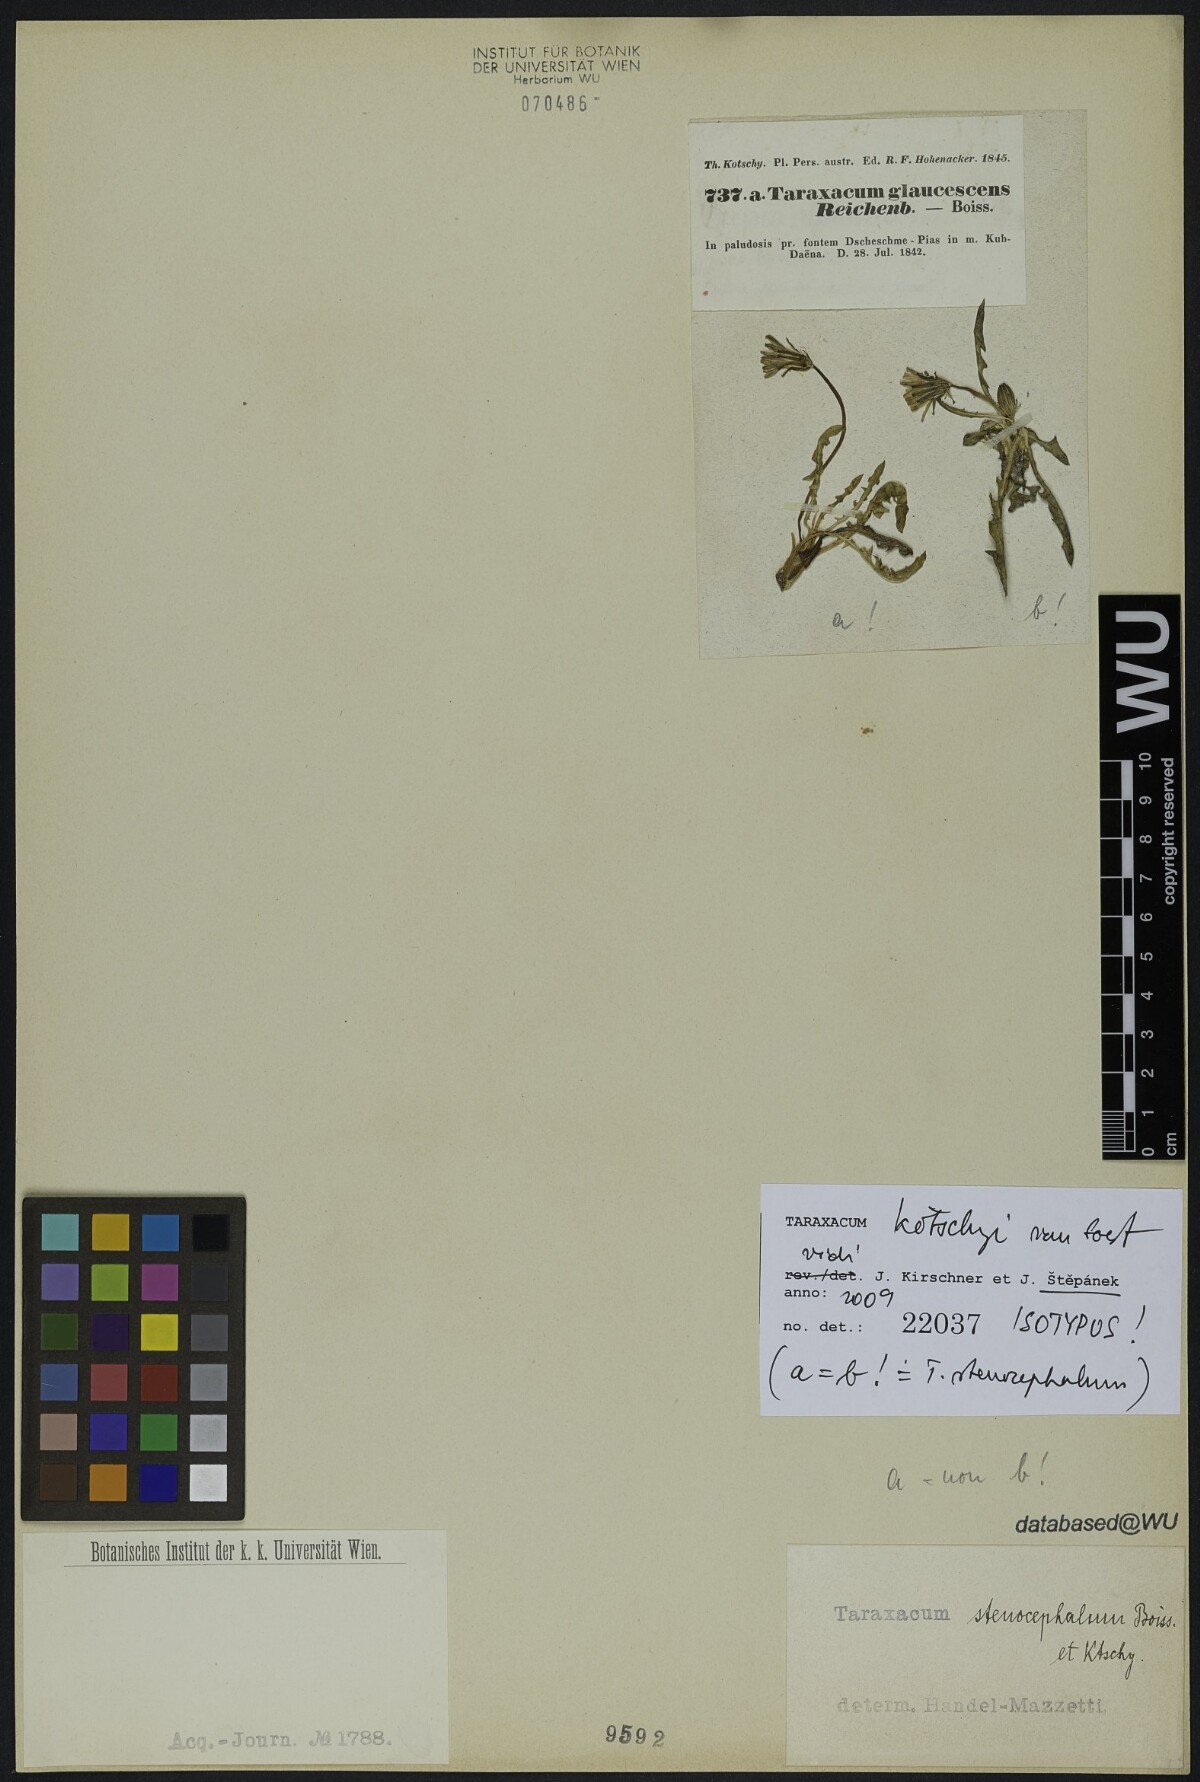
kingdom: Plantae
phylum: Tracheophyta
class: Magnoliopsida
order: Asterales
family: Asteraceae
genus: Taraxacum
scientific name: Taraxacum kotschyi
